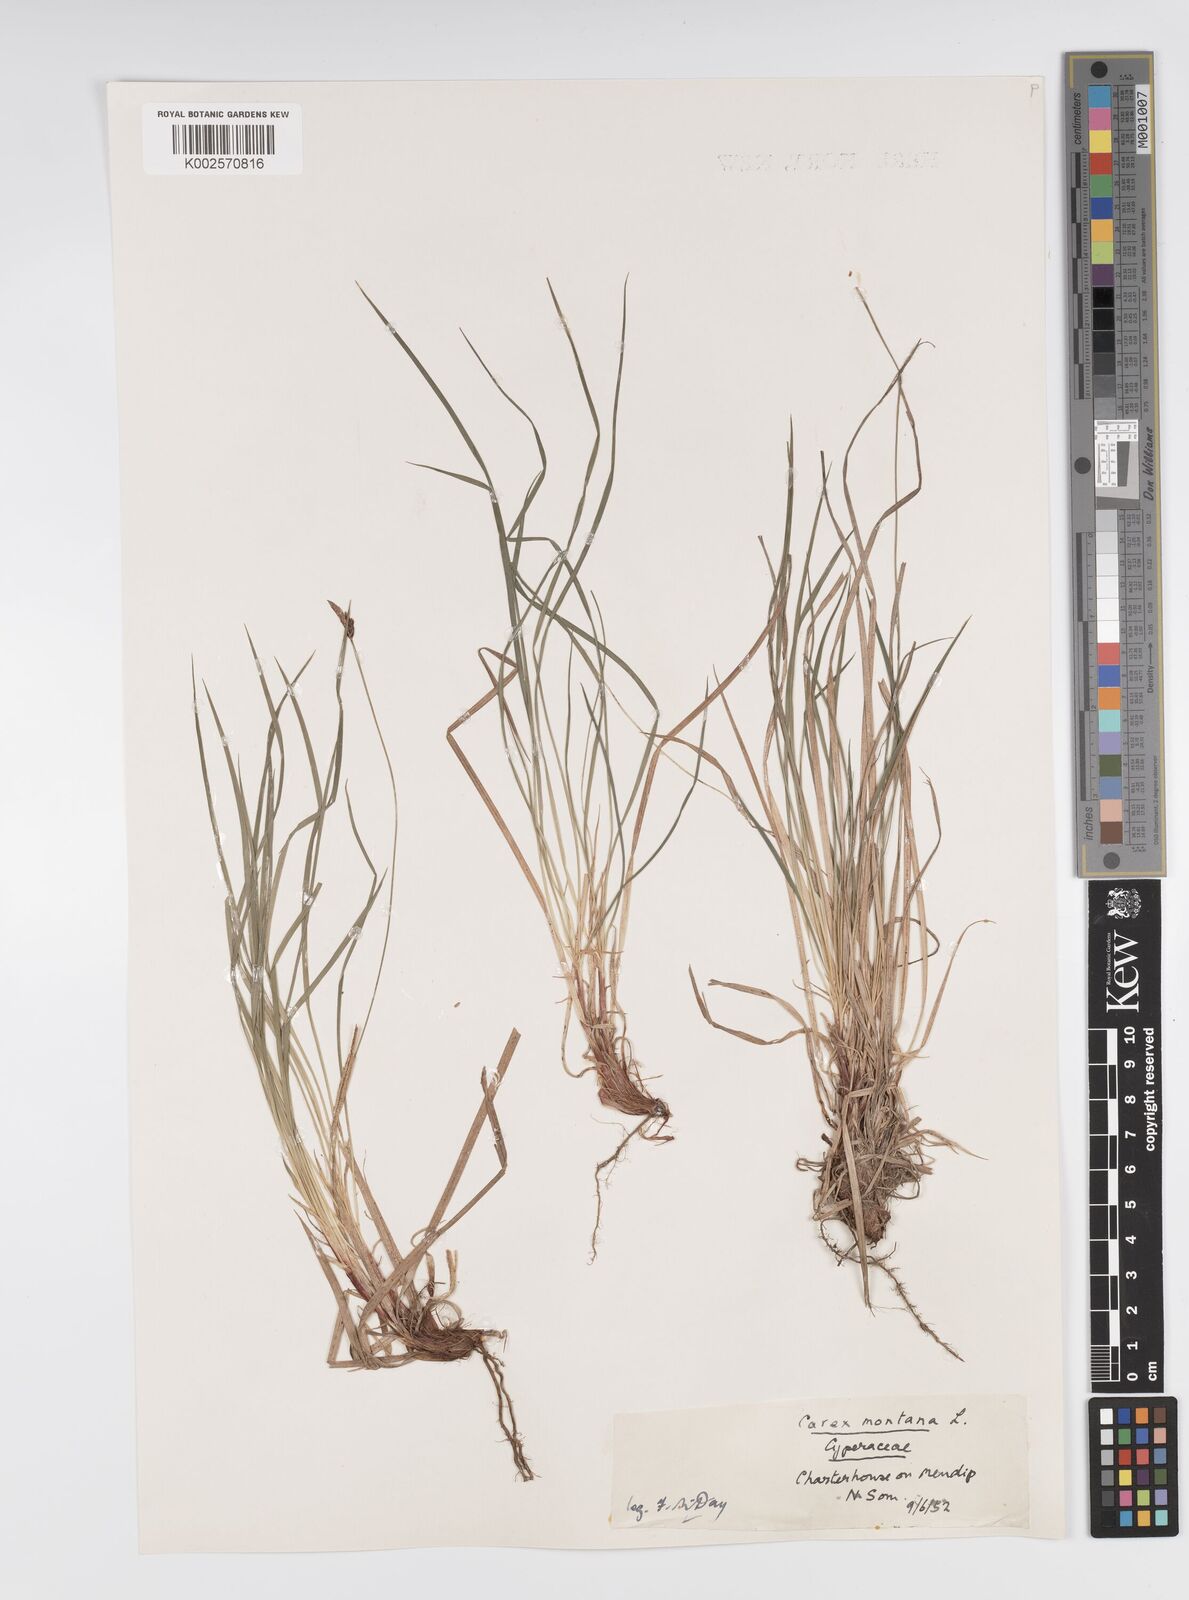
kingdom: Plantae
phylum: Tracheophyta
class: Liliopsida
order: Poales
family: Cyperaceae
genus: Carex
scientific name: Carex montana
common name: Soft-leaved sedge
